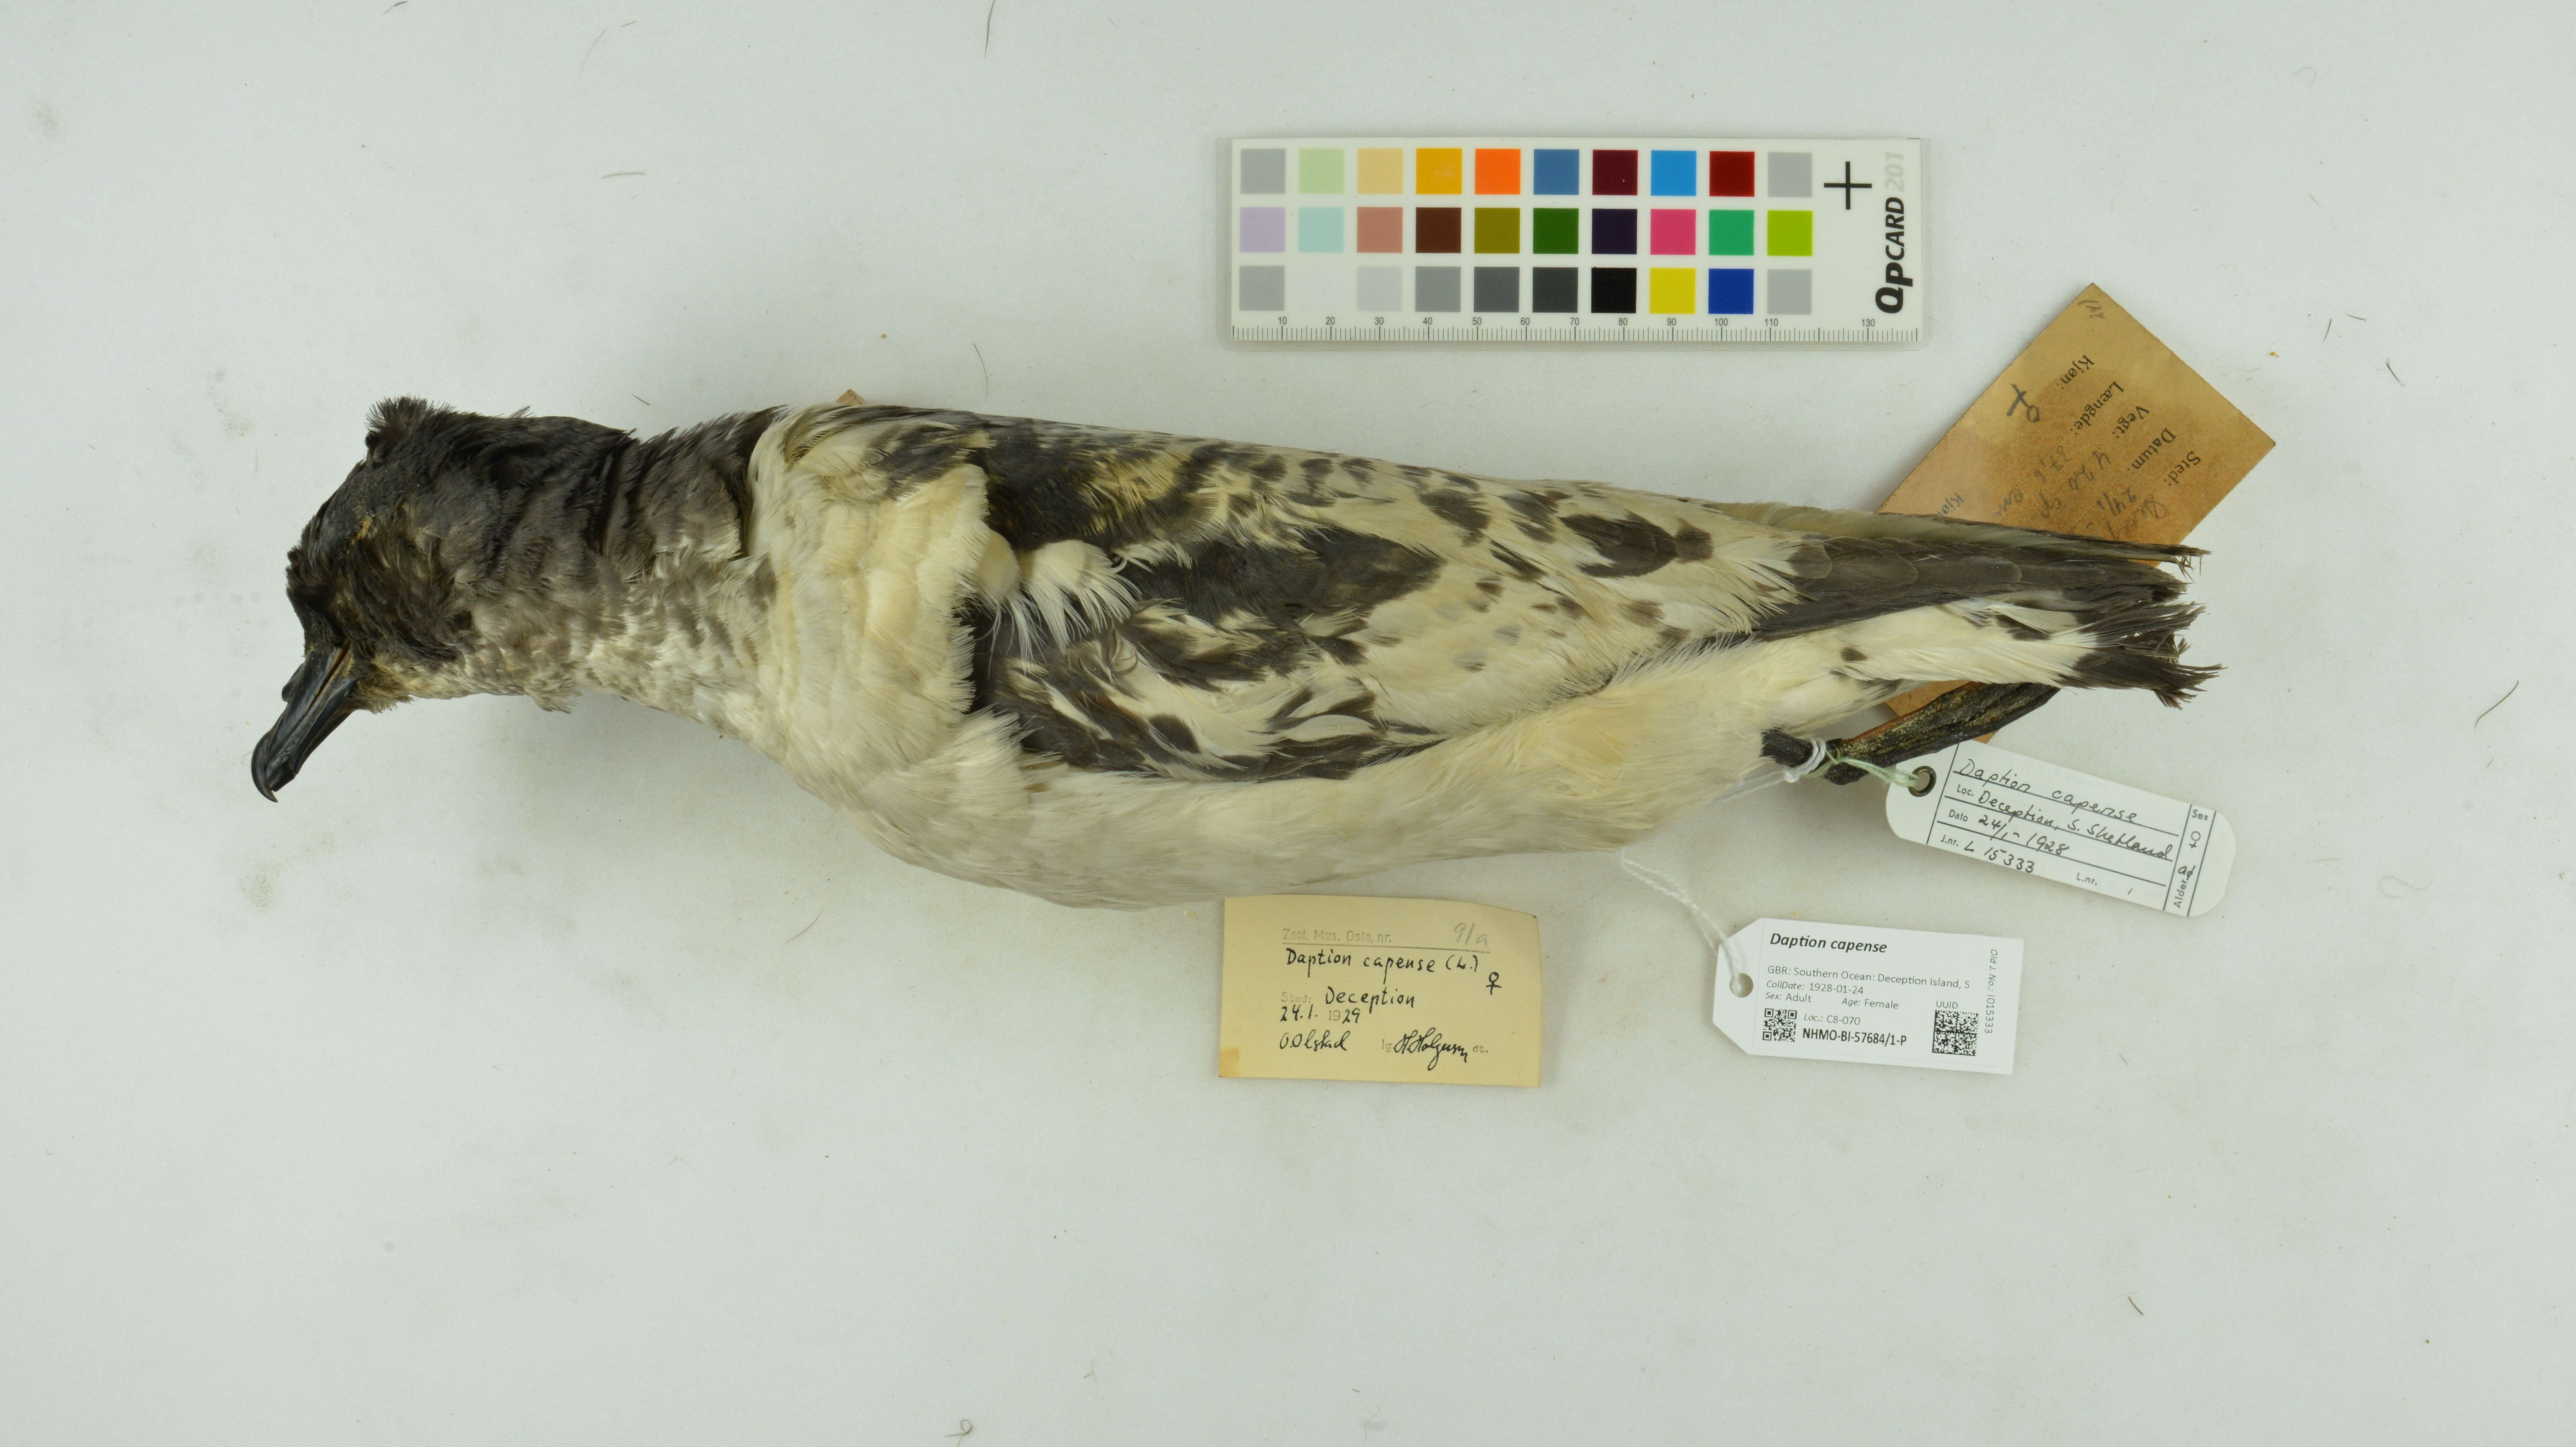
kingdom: Animalia
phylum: Chordata
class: Aves
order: Procellariiformes
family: Procellariidae
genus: Daption
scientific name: Daption capense
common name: Cape petrel
